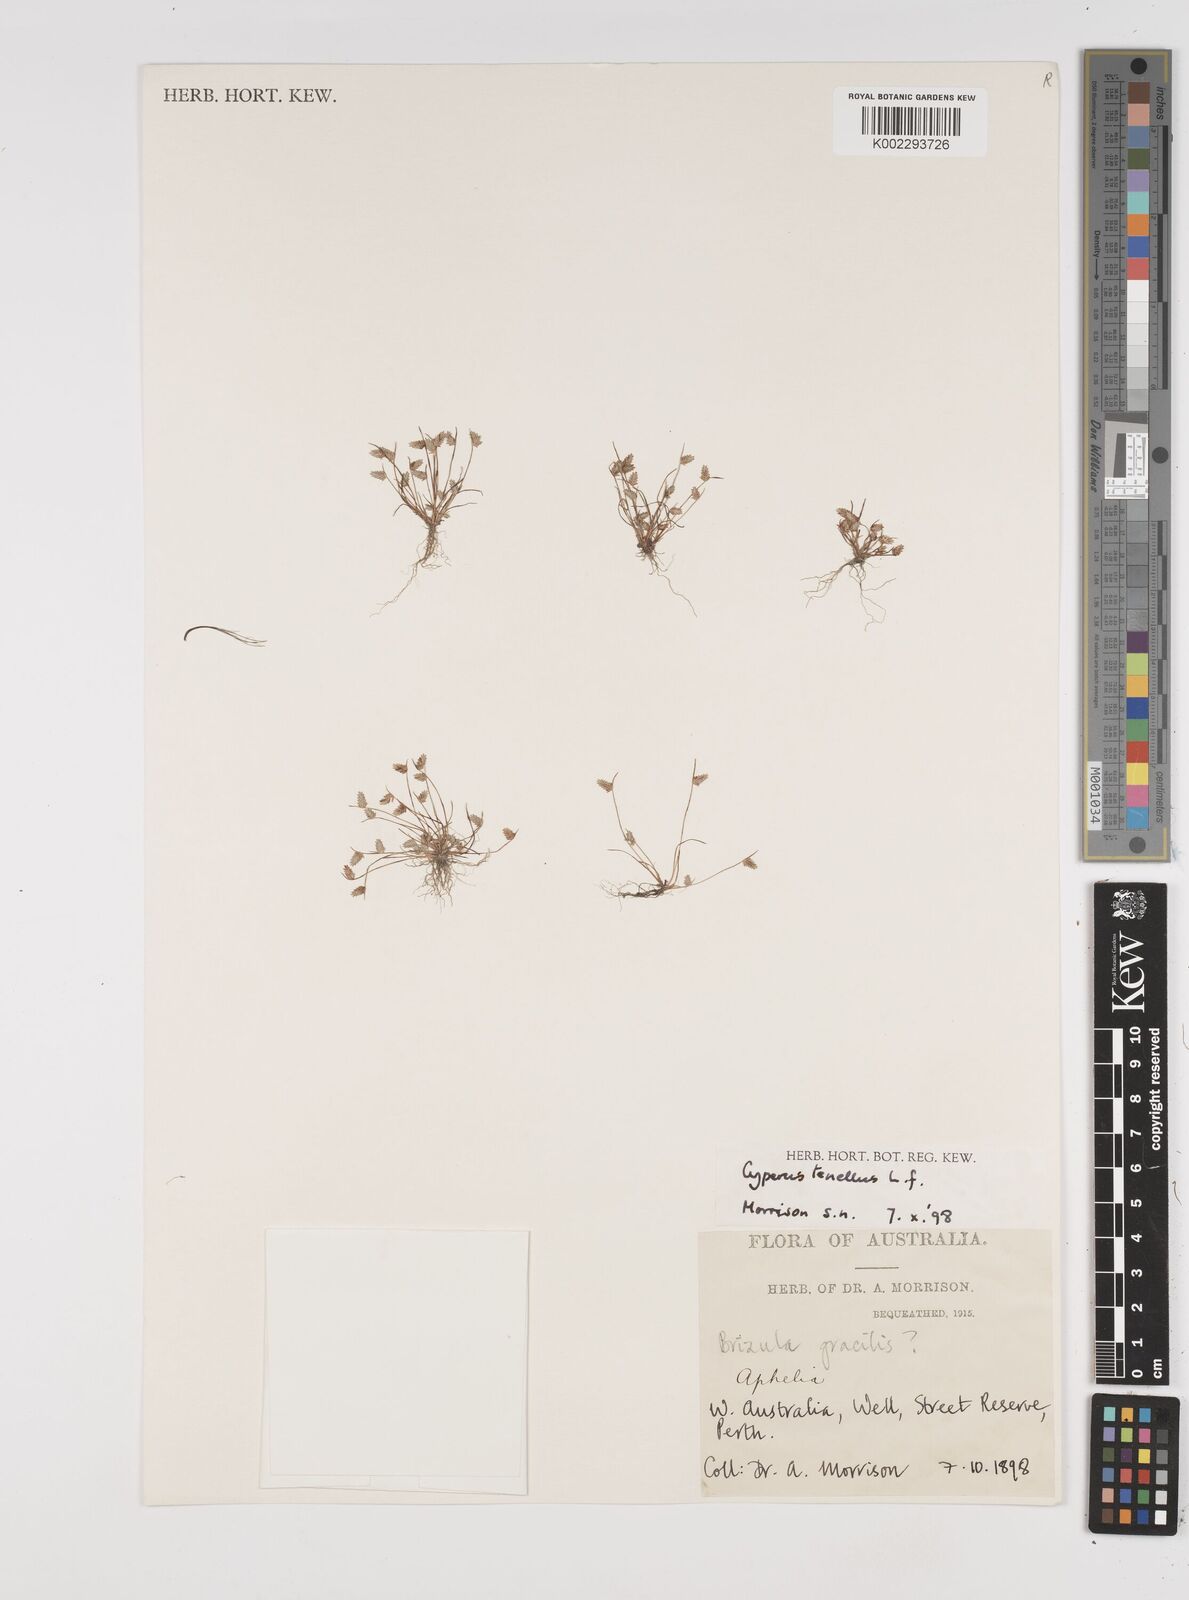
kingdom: Plantae
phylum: Tracheophyta
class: Liliopsida
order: Poales
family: Cyperaceae
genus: Isolepis
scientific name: Isolepis levynsiana
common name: Sedge
